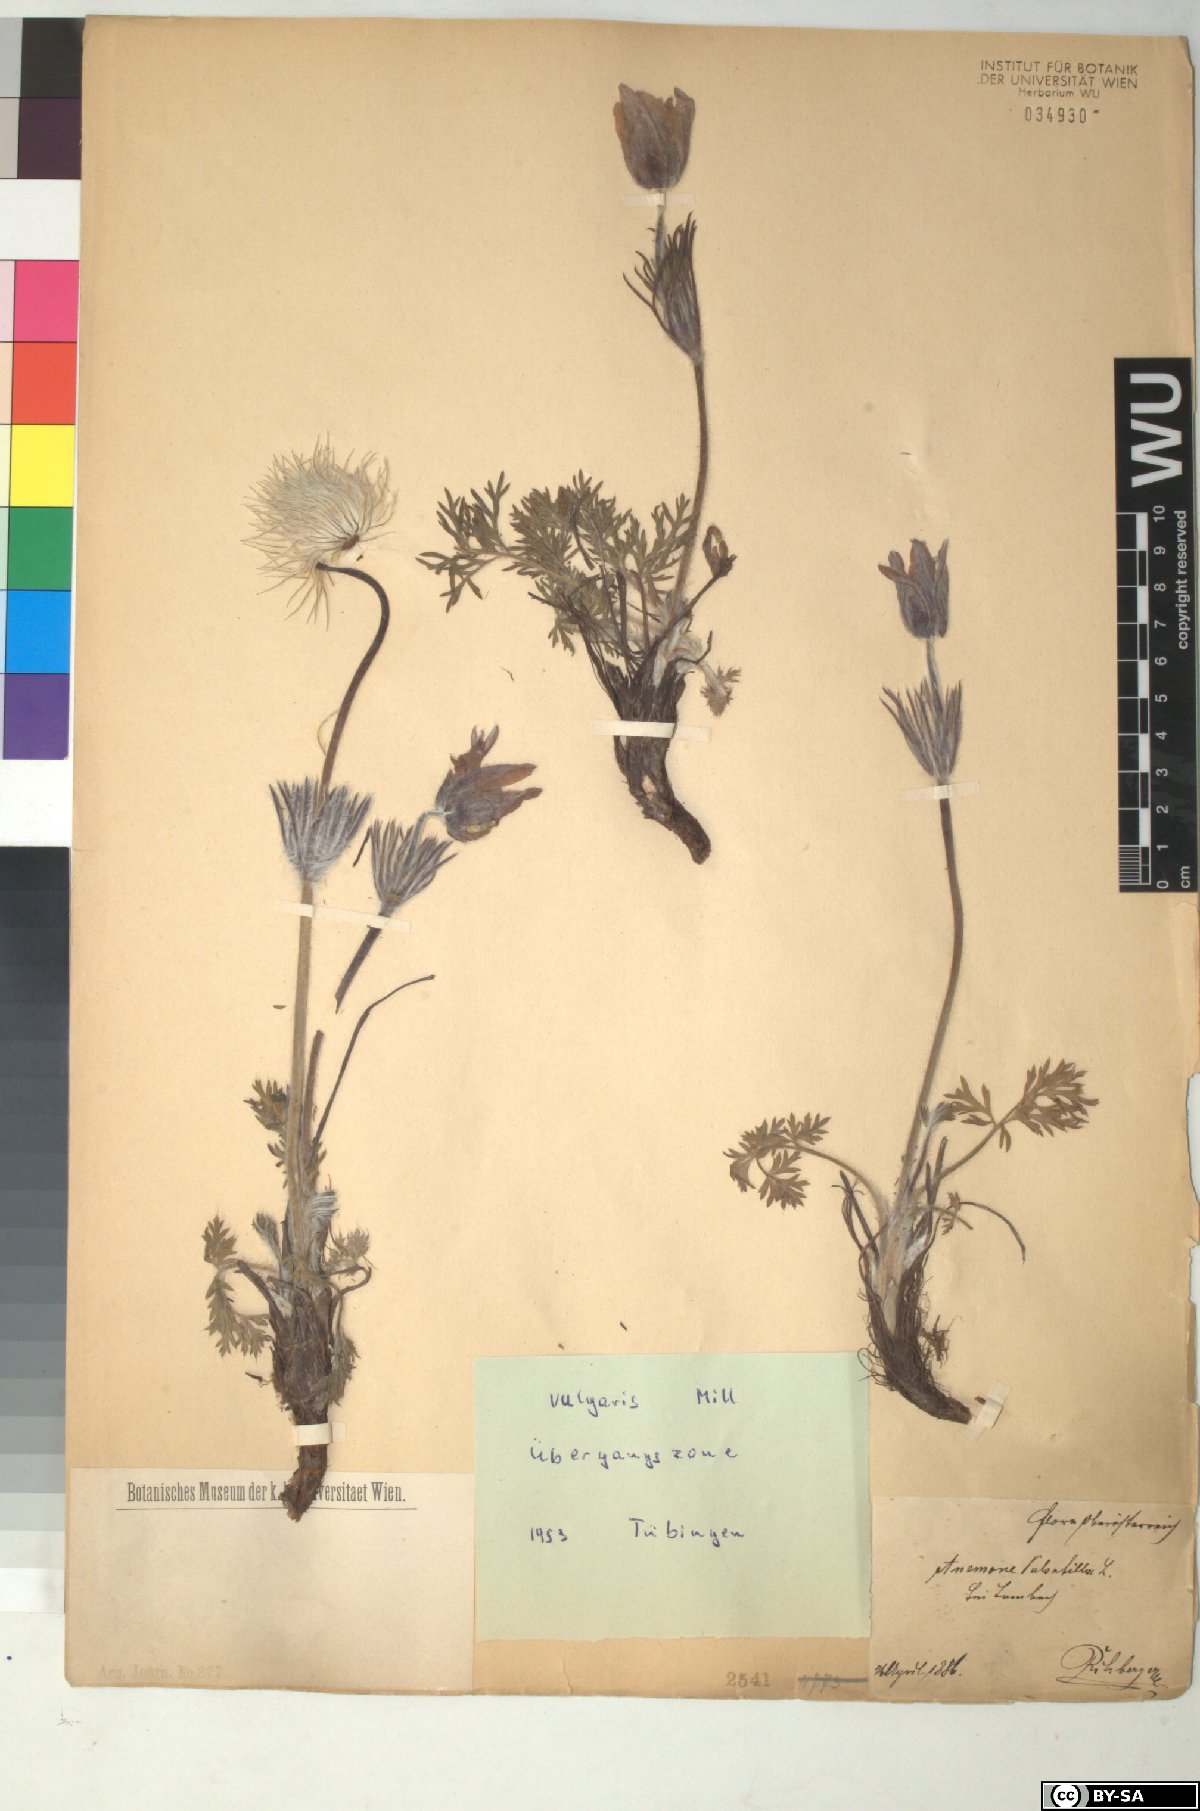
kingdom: Plantae
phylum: Tracheophyta
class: Magnoliopsida
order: Ranunculales
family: Ranunculaceae
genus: Pulsatilla
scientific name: Pulsatilla vulgaris
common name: Pasqueflower
